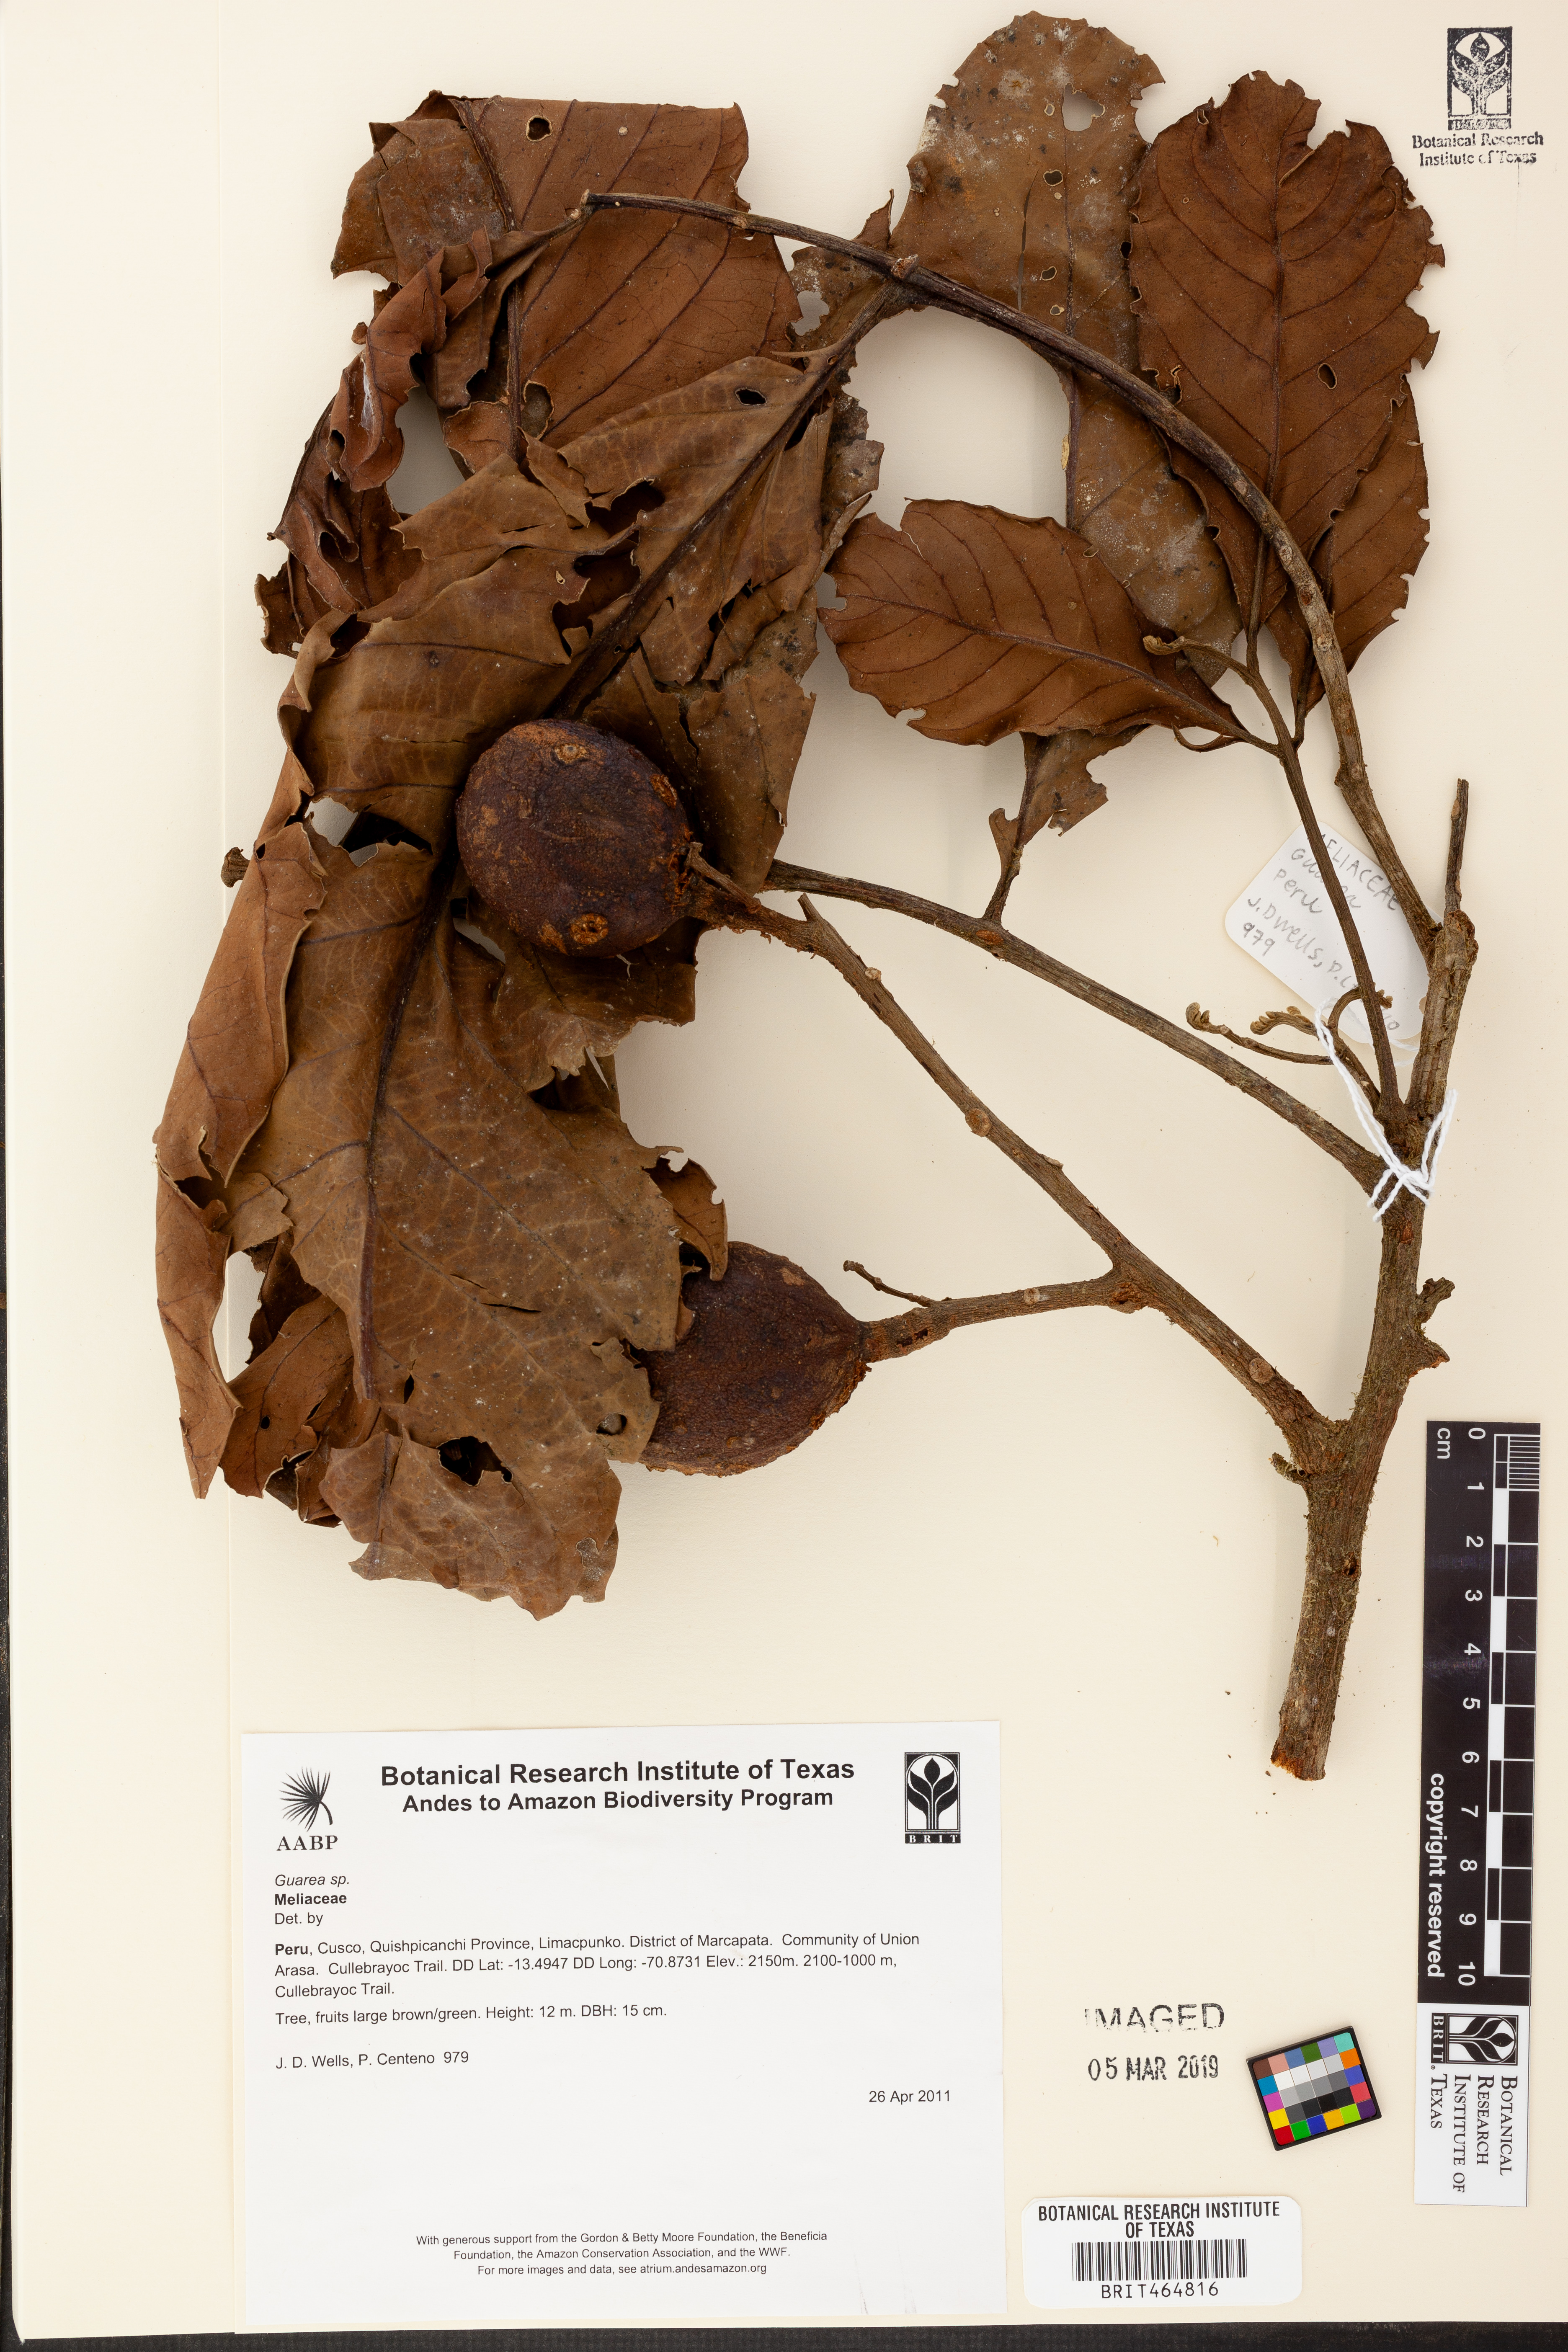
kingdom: Plantae
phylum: Tracheophyta
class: Magnoliopsida
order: Sapindales
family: Meliaceae
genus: Guarea
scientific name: Guarea
